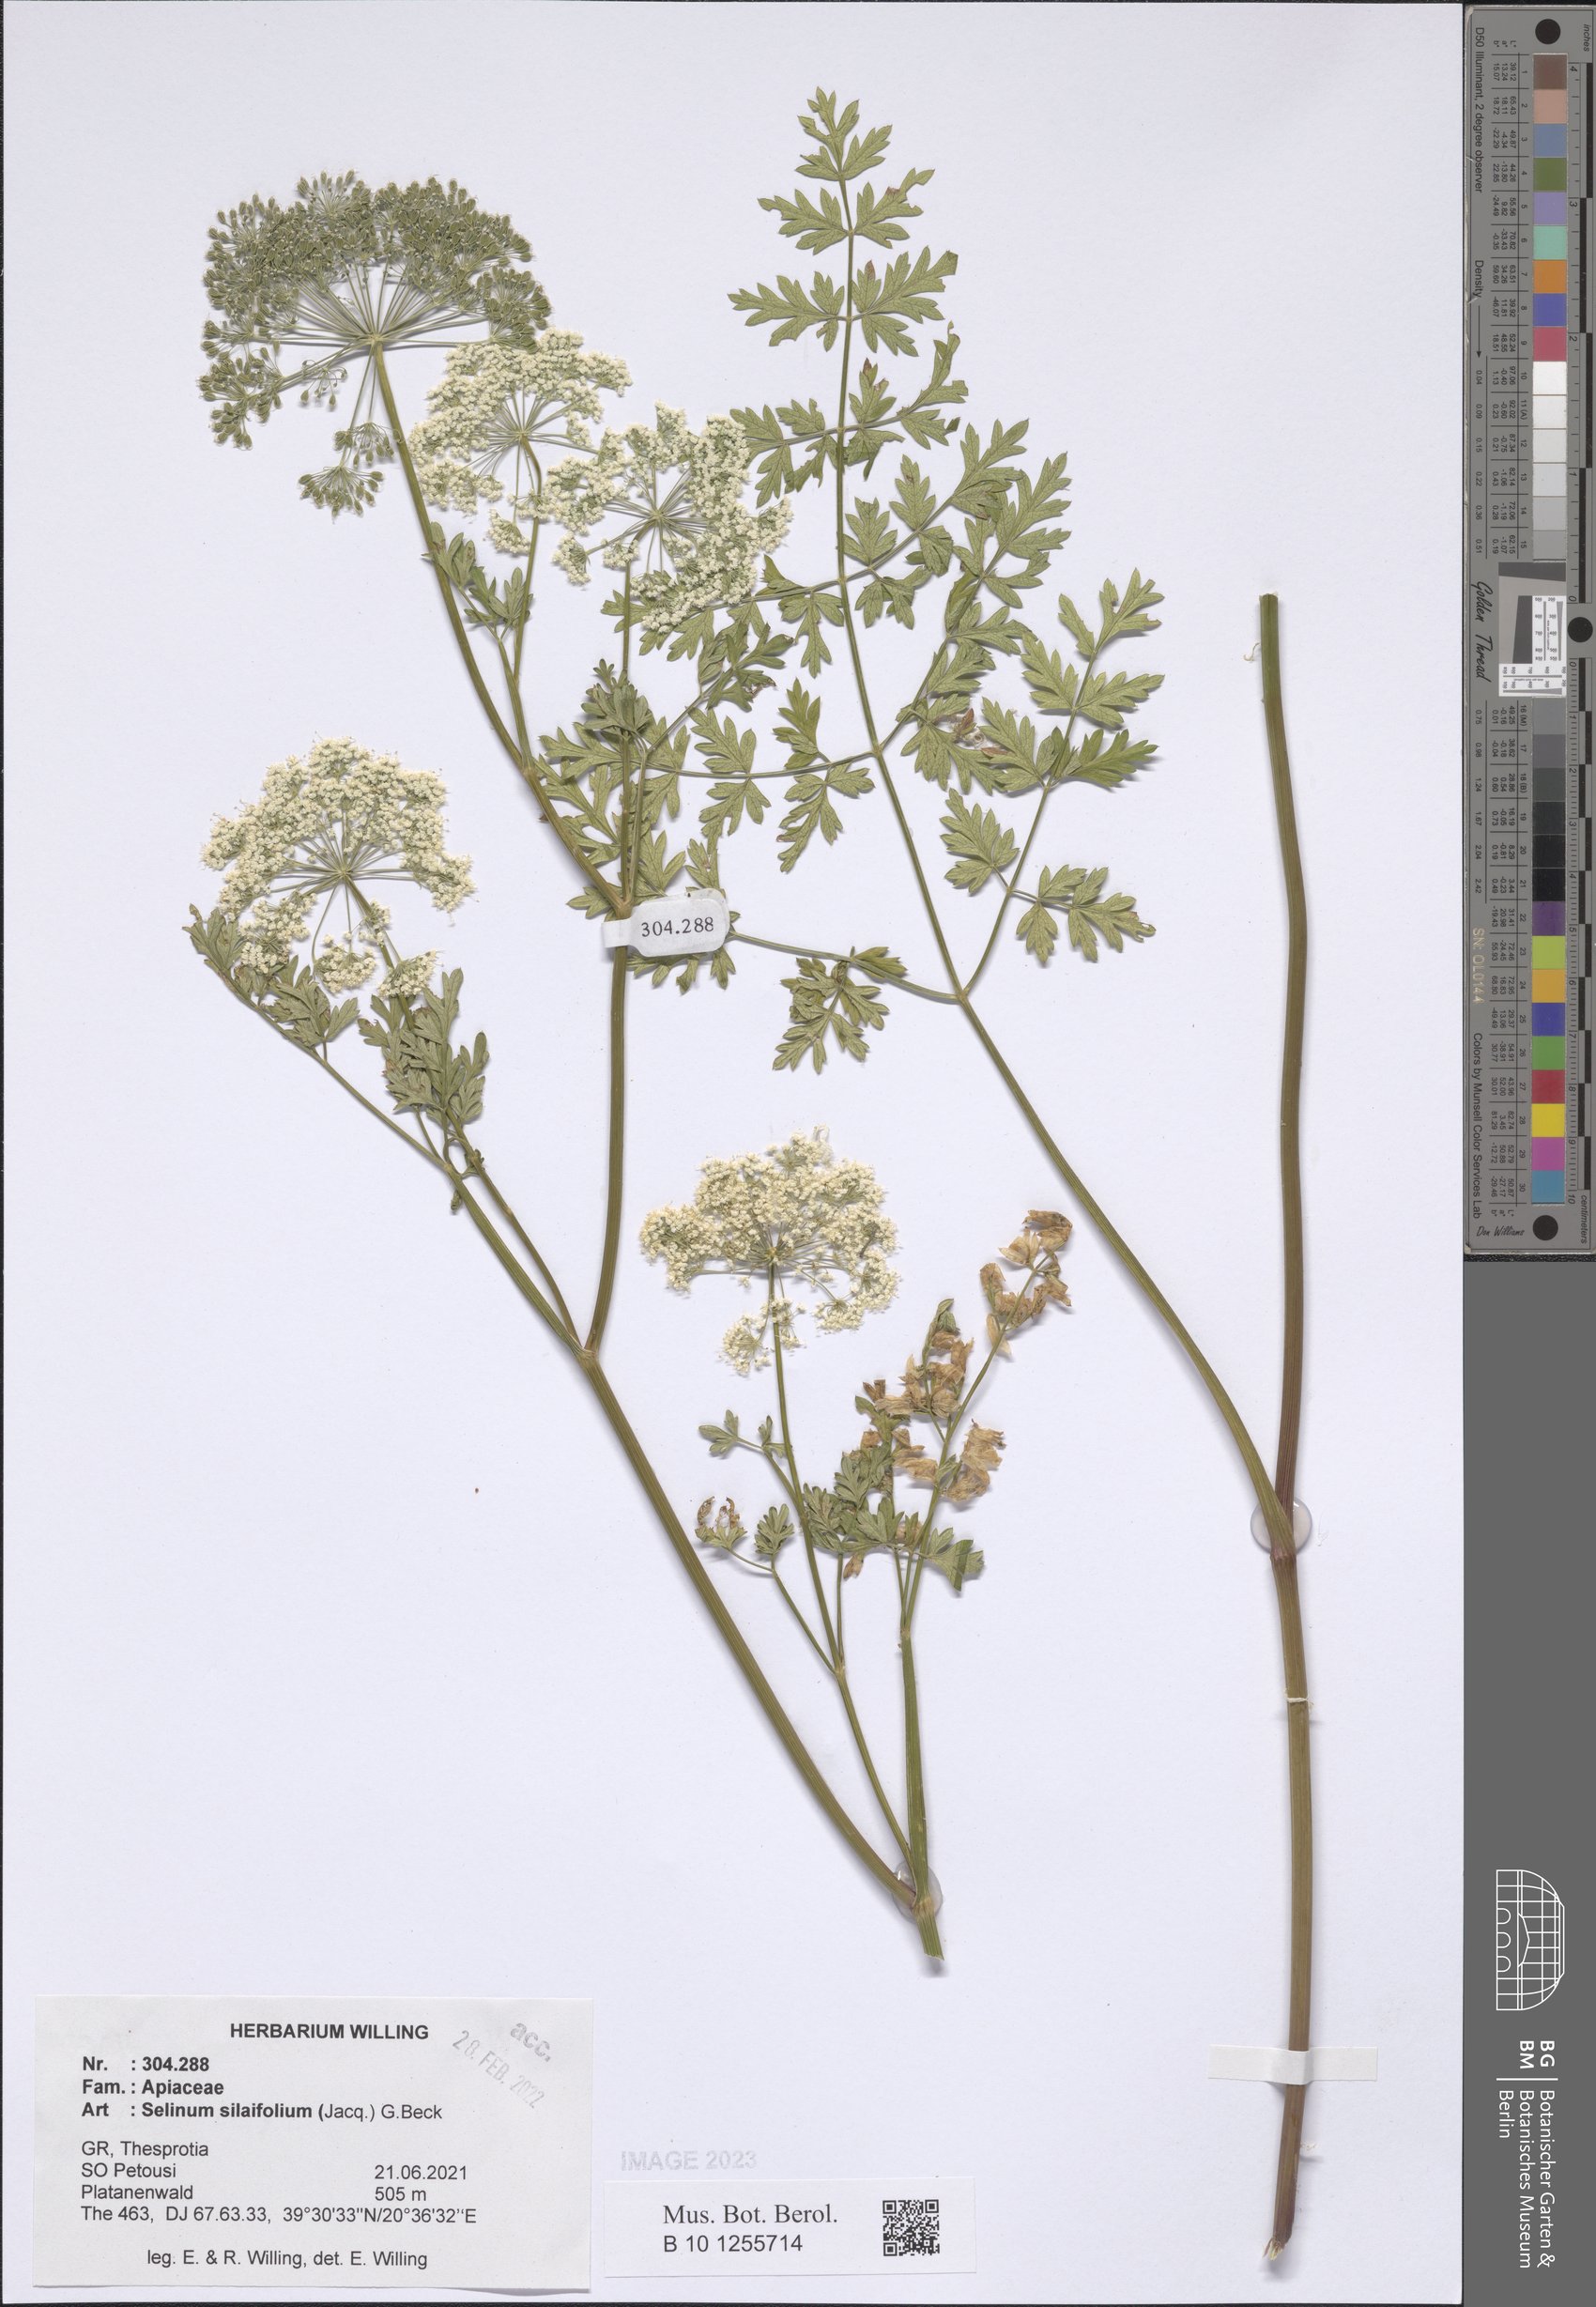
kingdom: Plantae
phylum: Tracheophyta
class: Magnoliopsida
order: Apiales
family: Apiaceae
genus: Katapsuxis
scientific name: Katapsuxis silaifolia
